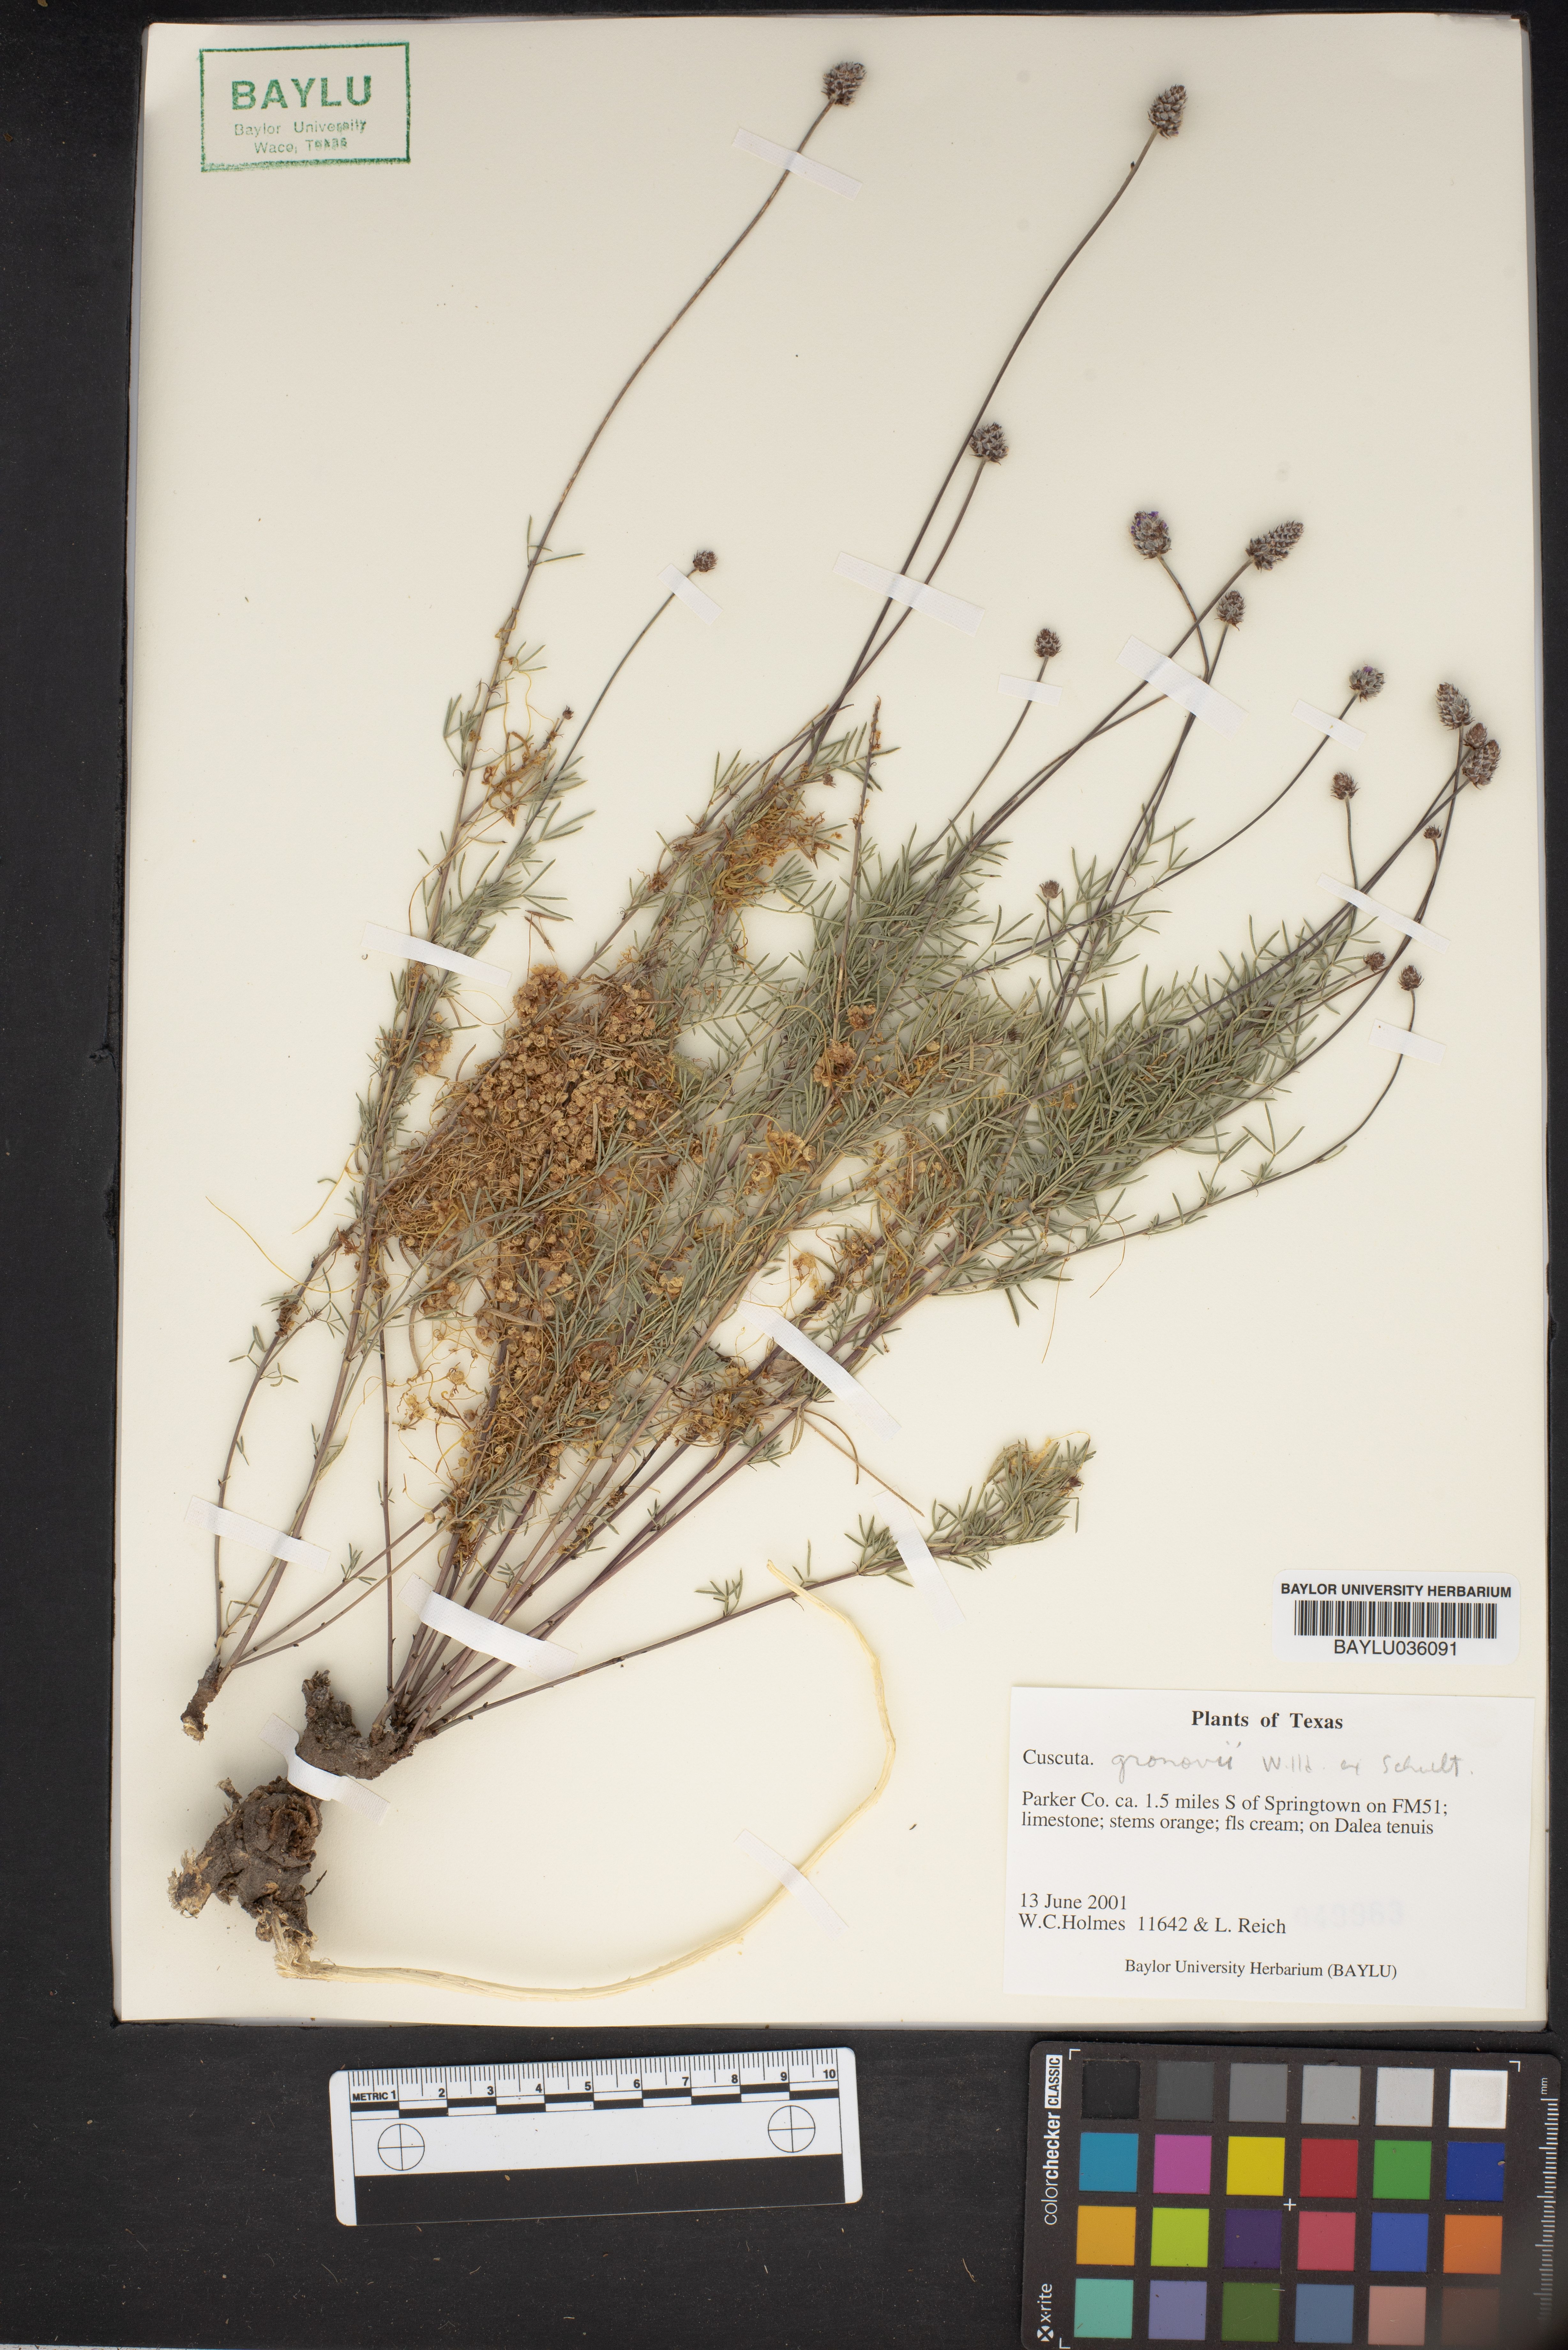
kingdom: Plantae
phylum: Tracheophyta
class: Magnoliopsida
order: Solanales
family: Convolvulaceae
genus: Cuscuta
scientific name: Cuscuta gronovii
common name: Common dodder
